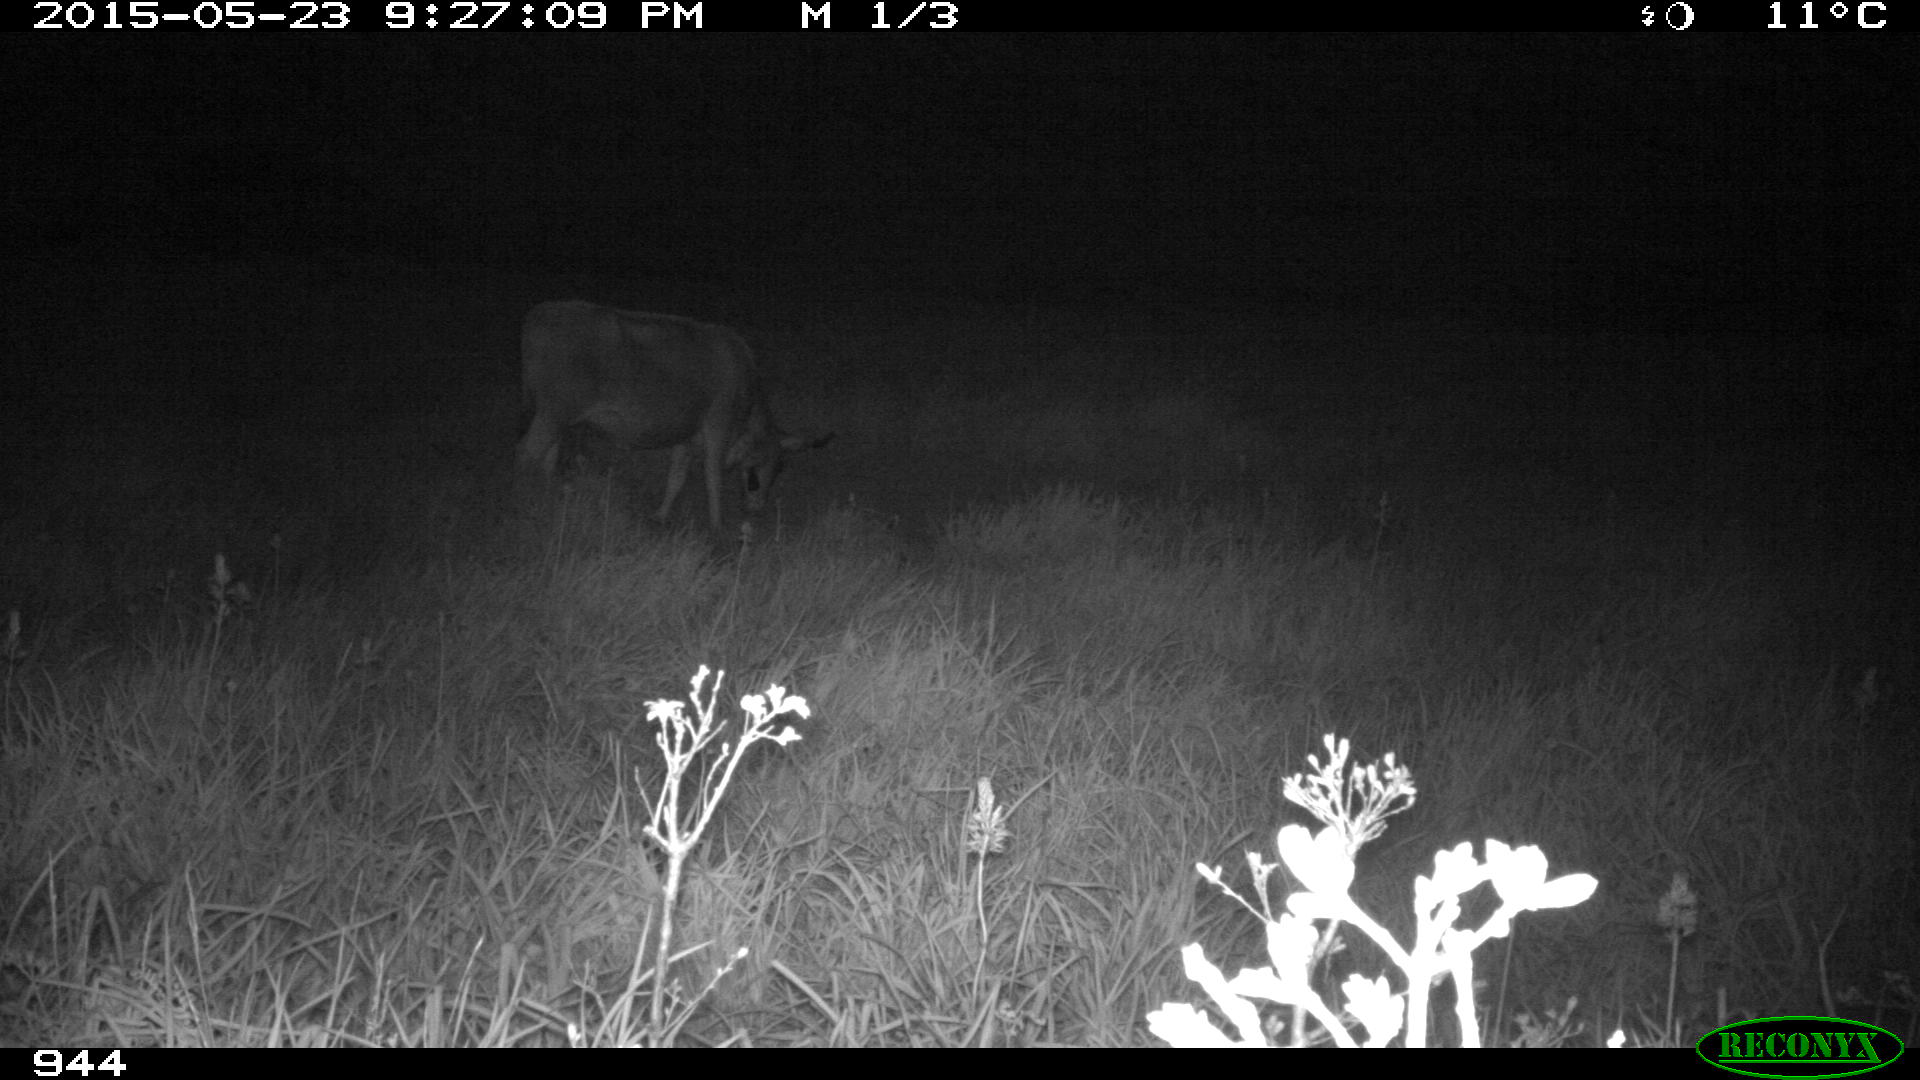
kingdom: Animalia
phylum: Chordata
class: Mammalia
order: Artiodactyla
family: Bovidae
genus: Bos
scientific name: Bos taurus
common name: Domesticated cattle
